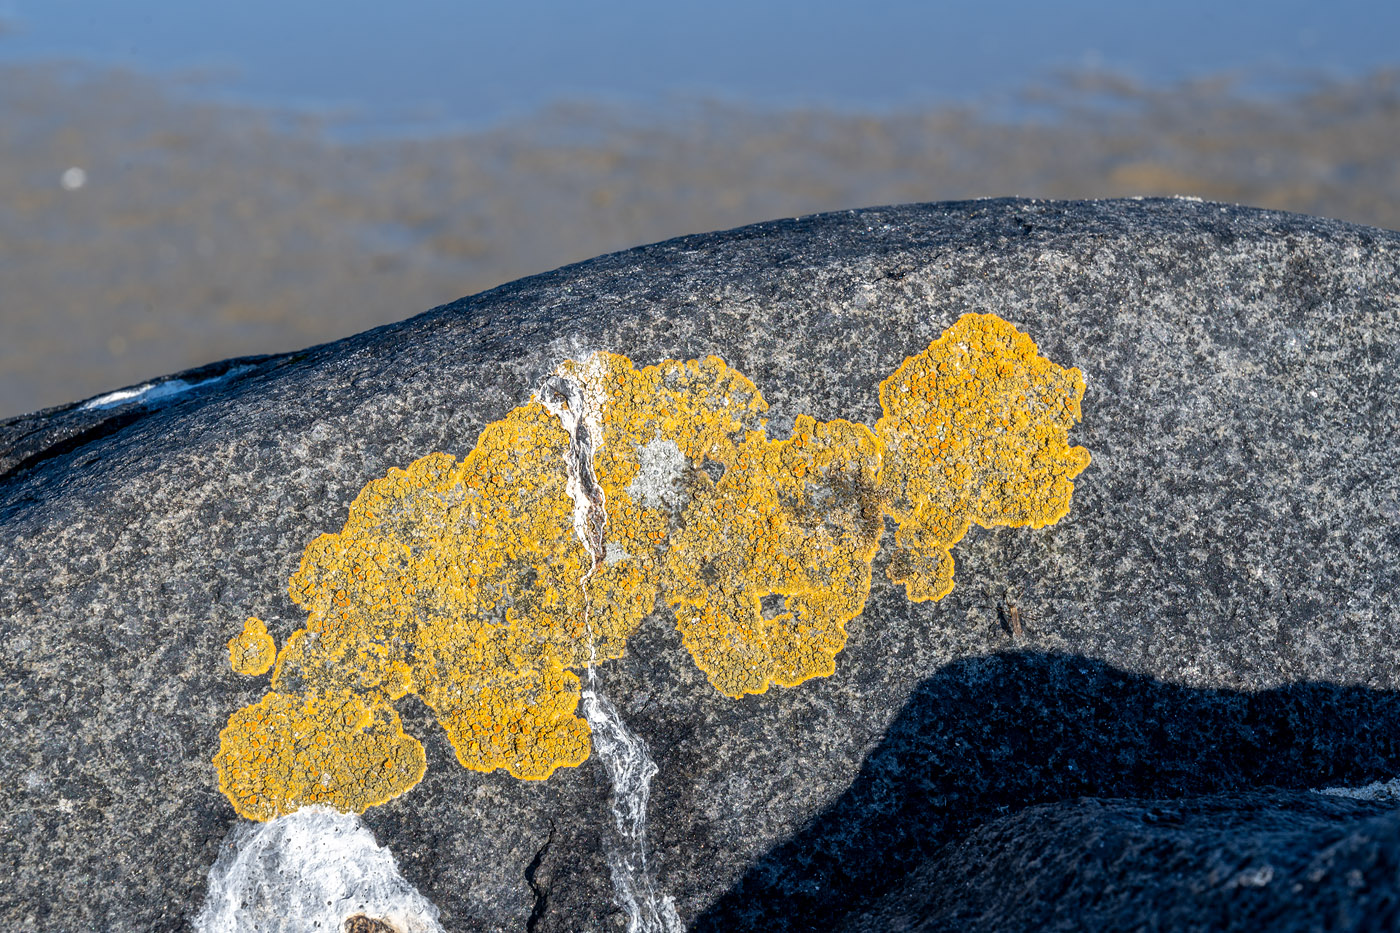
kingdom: Fungi
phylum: Ascomycota
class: Lecanoromycetes
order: Teloschistales
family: Teloschistaceae
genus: Flavoplaca
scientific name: Flavoplaca marina
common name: strand-orangelav
